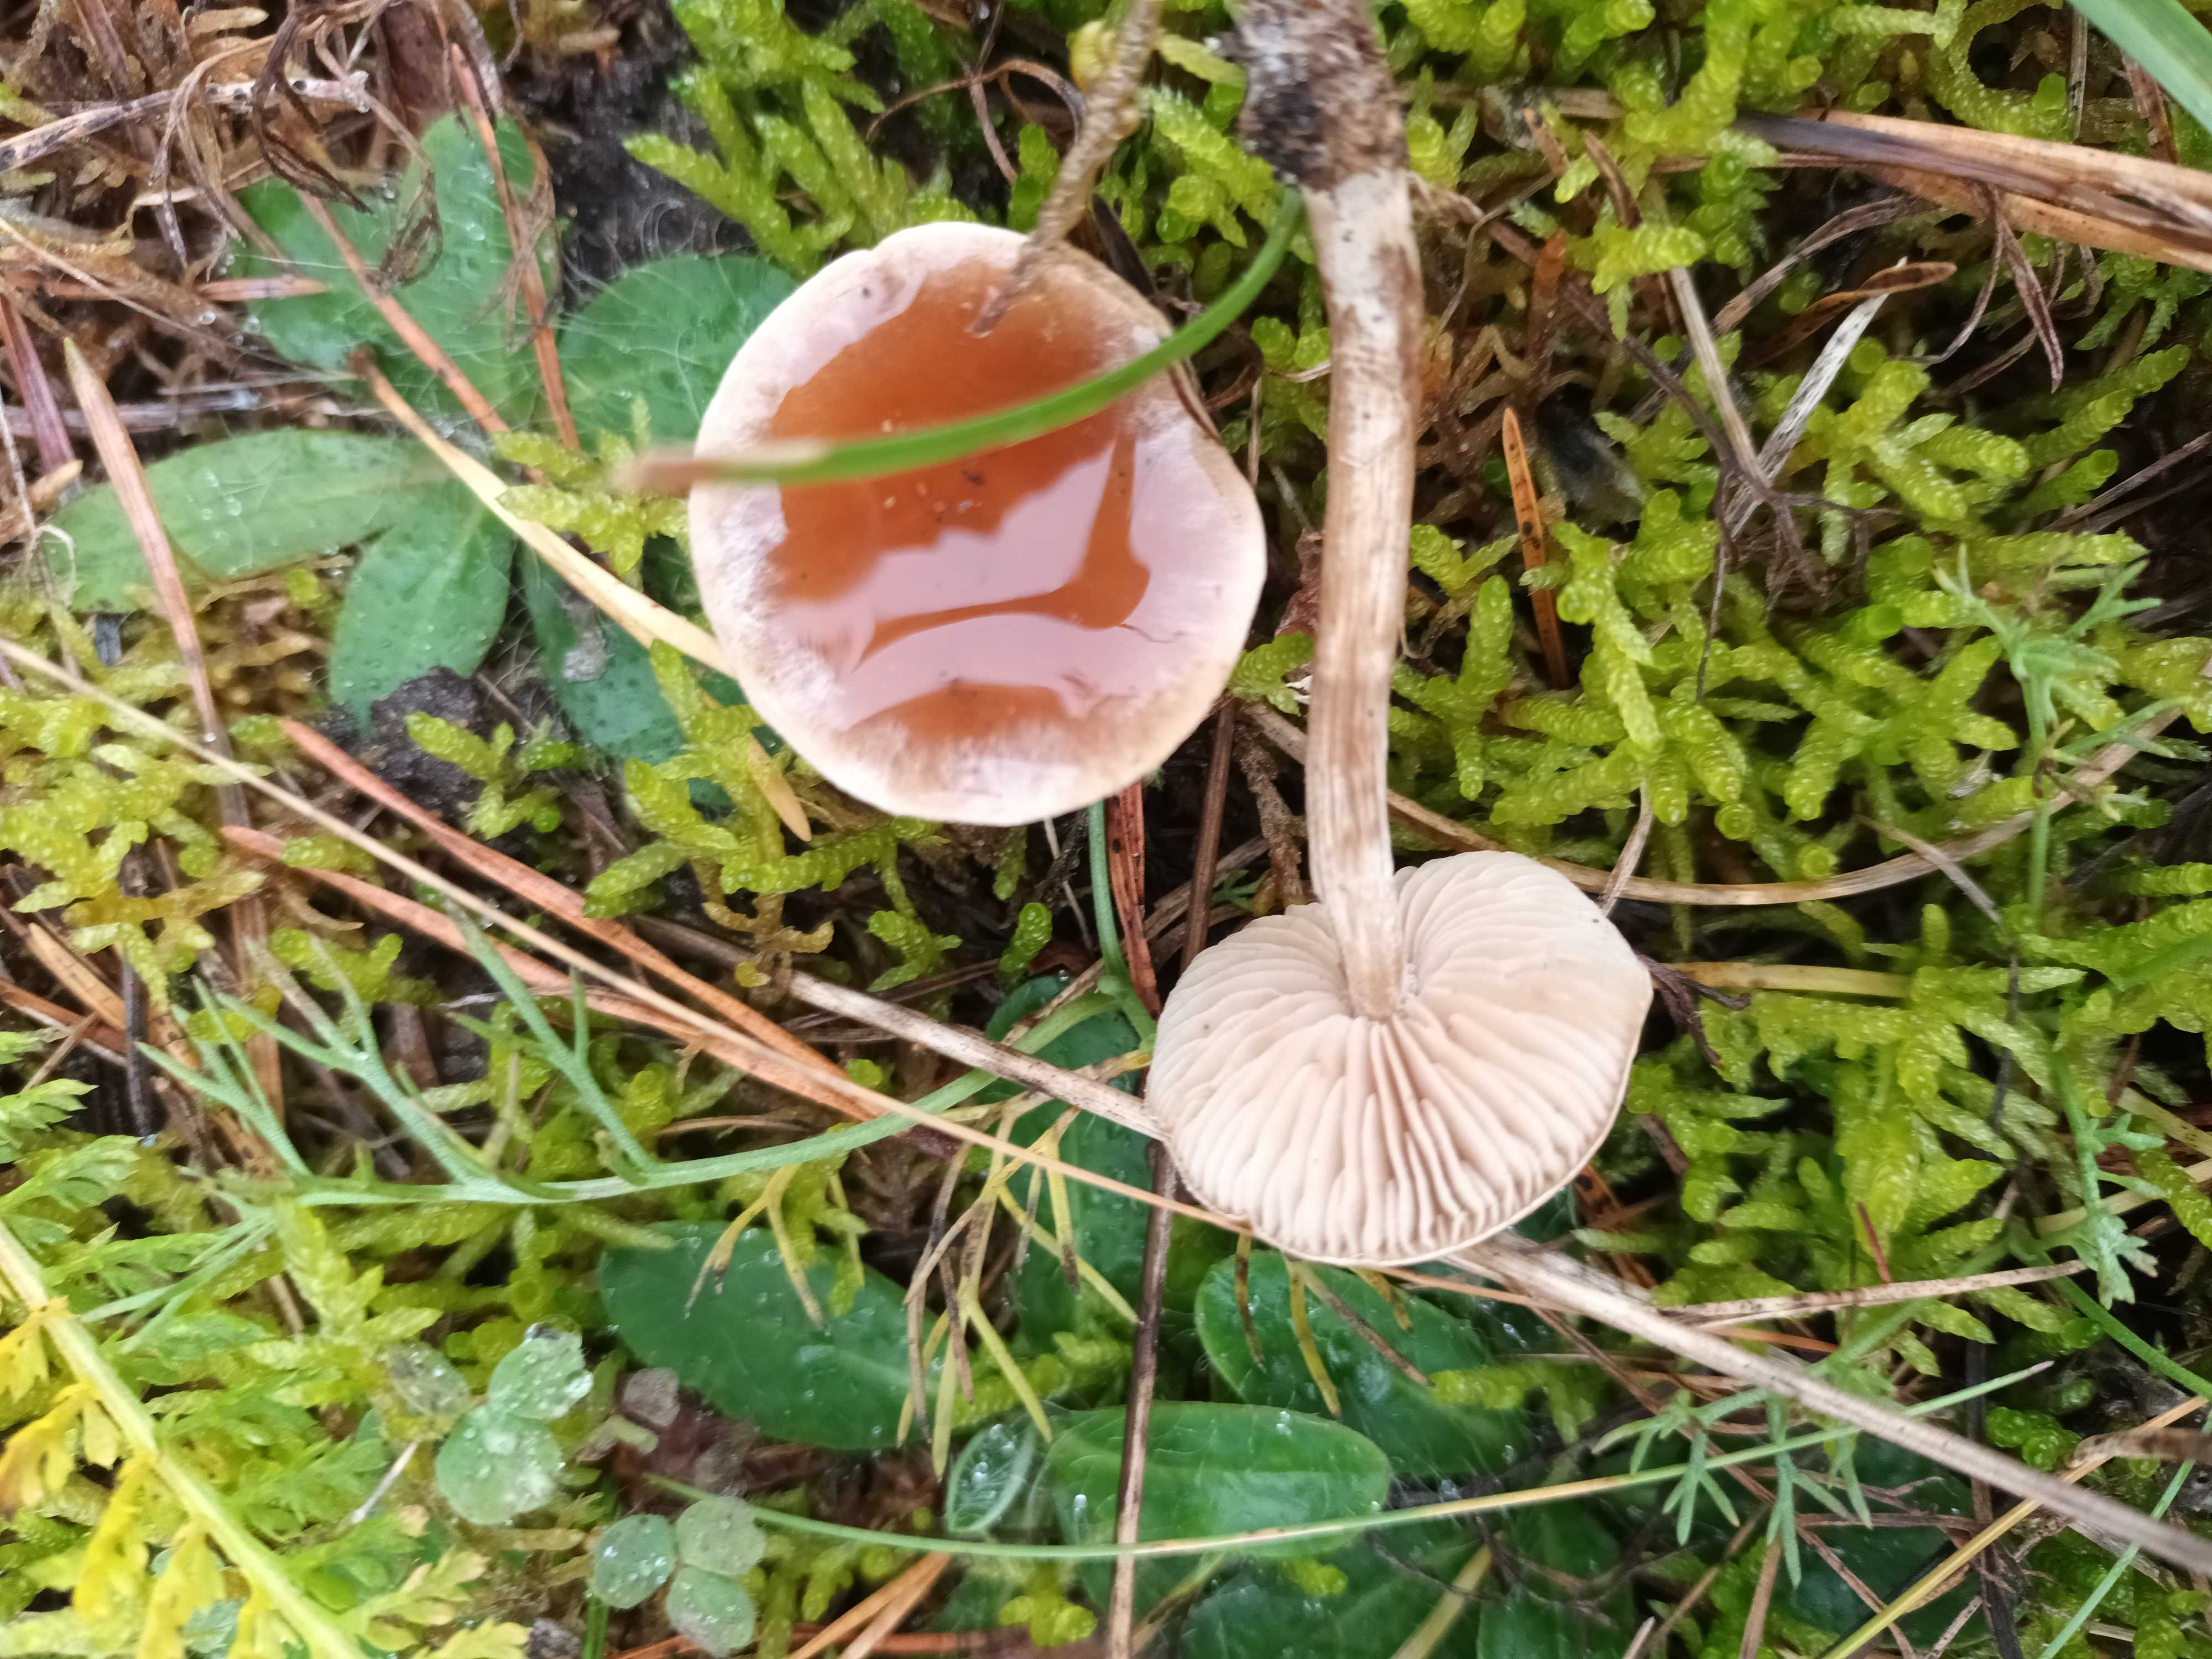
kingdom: Fungi
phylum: Basidiomycota
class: Agaricomycetes
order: Agaricales
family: Hymenogastraceae
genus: Hebeloma
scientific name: Hebeloma mesophaeum
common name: lerbrun tåreblad
